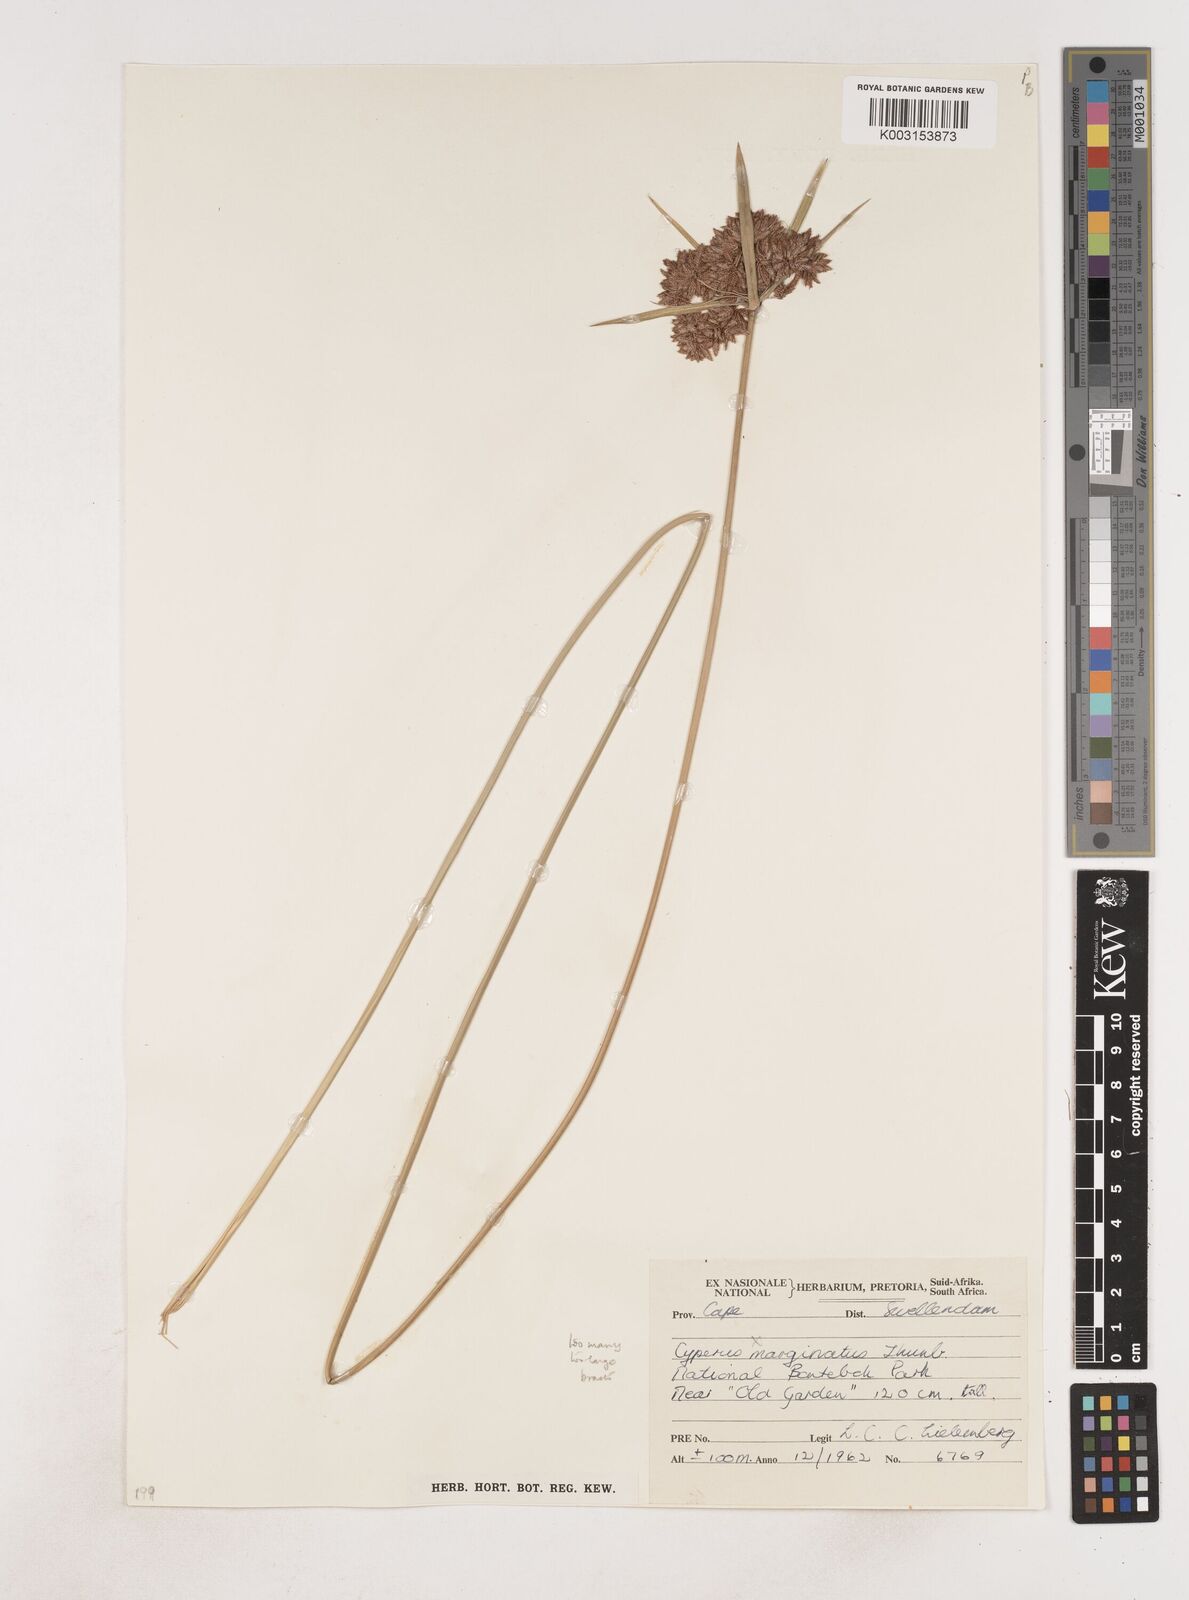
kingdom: Plantae
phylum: Tracheophyta
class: Liliopsida
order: Poales
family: Cyperaceae
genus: Cyperus
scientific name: Cyperus
